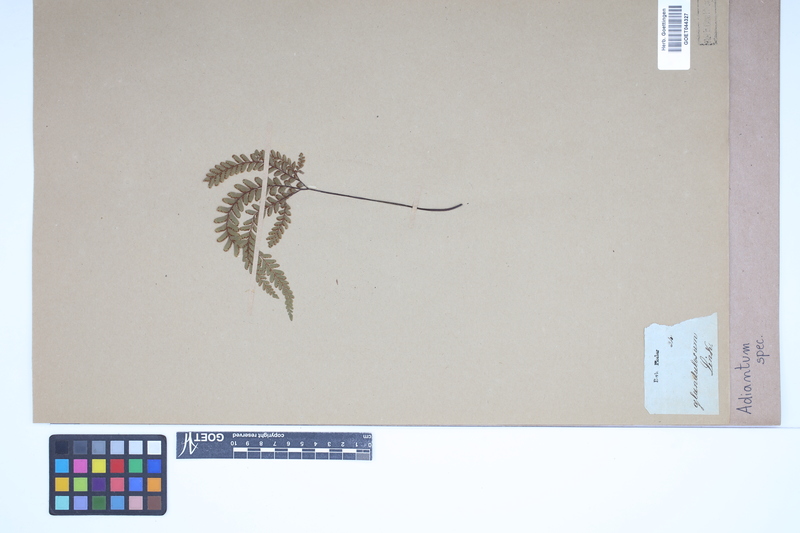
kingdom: Plantae
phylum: Tracheophyta
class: Polypodiopsida
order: Polypodiales
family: Pteridaceae
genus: Adiantum
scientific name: Adiantum
